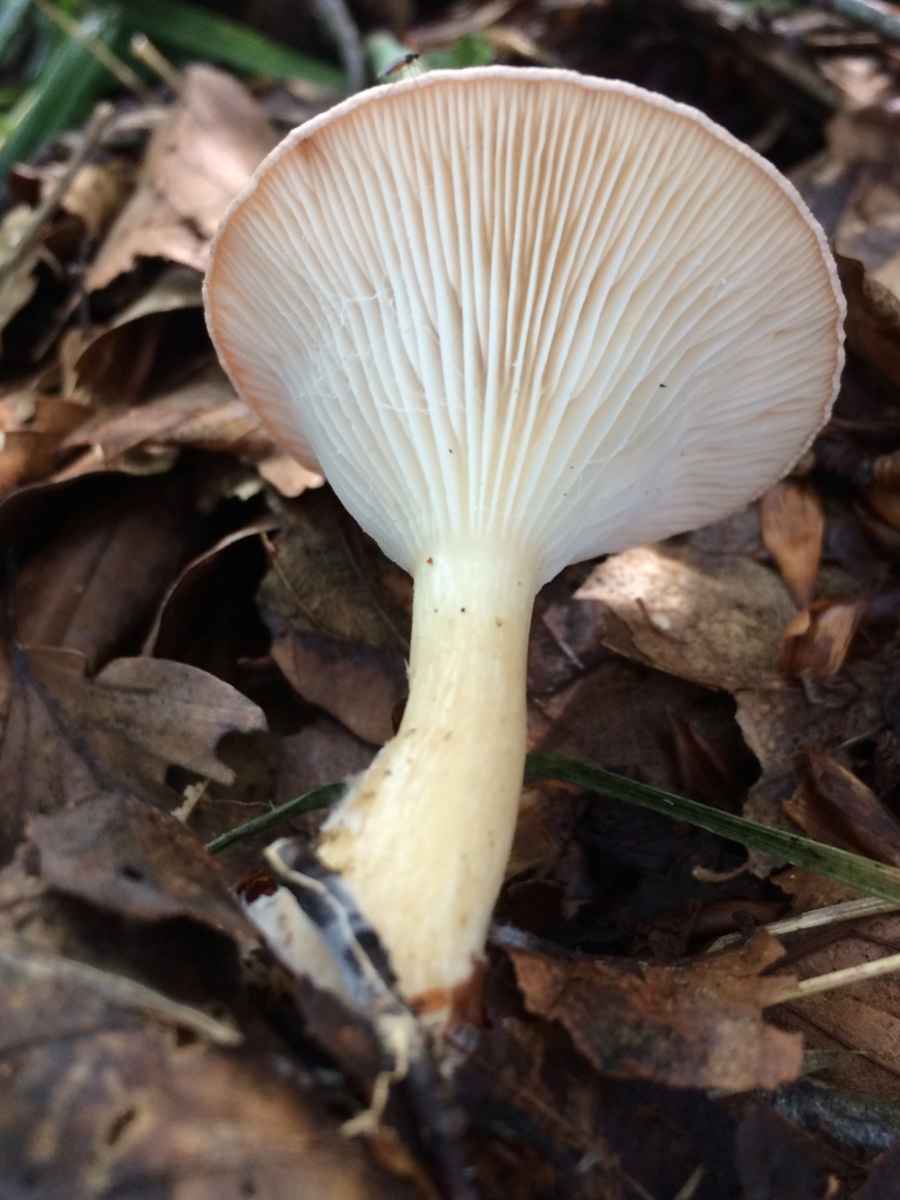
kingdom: Fungi
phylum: Basidiomycota
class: Agaricomycetes
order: Agaricales
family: Tricholomataceae
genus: Infundibulicybe
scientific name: Infundibulicybe gibba
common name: almindelig tragthat
